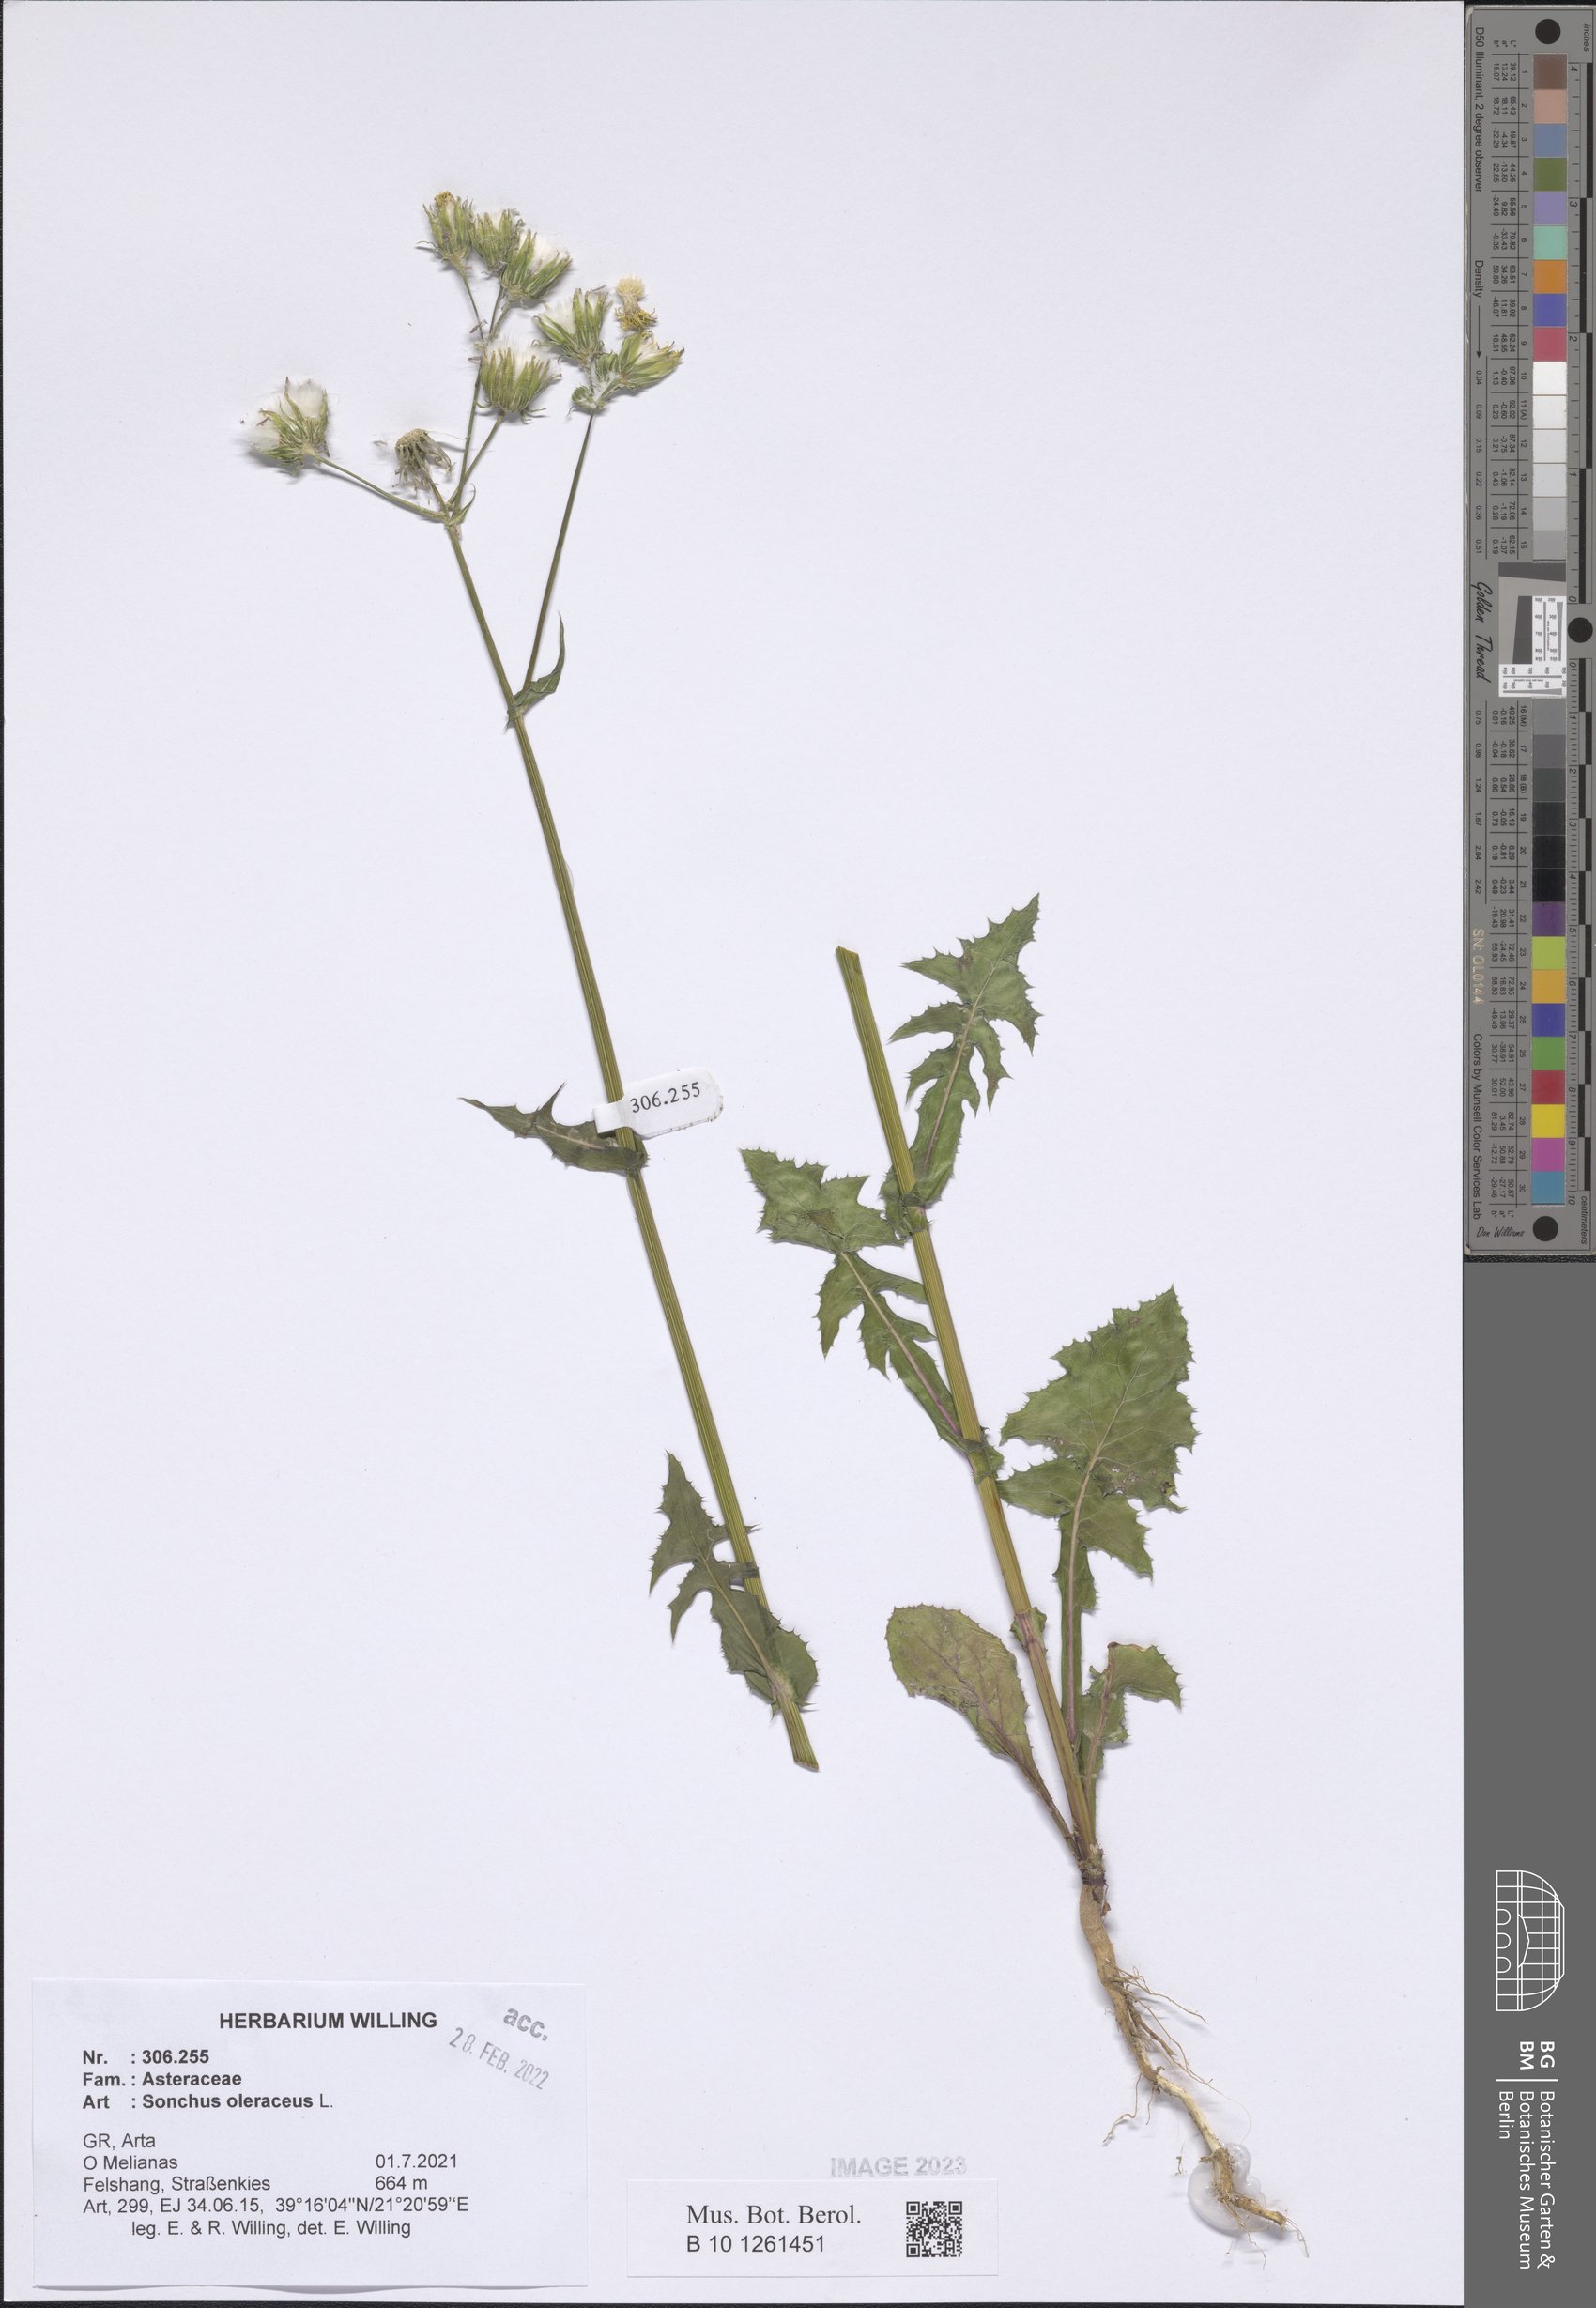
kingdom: Plantae
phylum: Tracheophyta
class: Magnoliopsida
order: Asterales
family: Asteraceae
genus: Sonchus
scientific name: Sonchus oleraceus
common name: Common sowthistle
